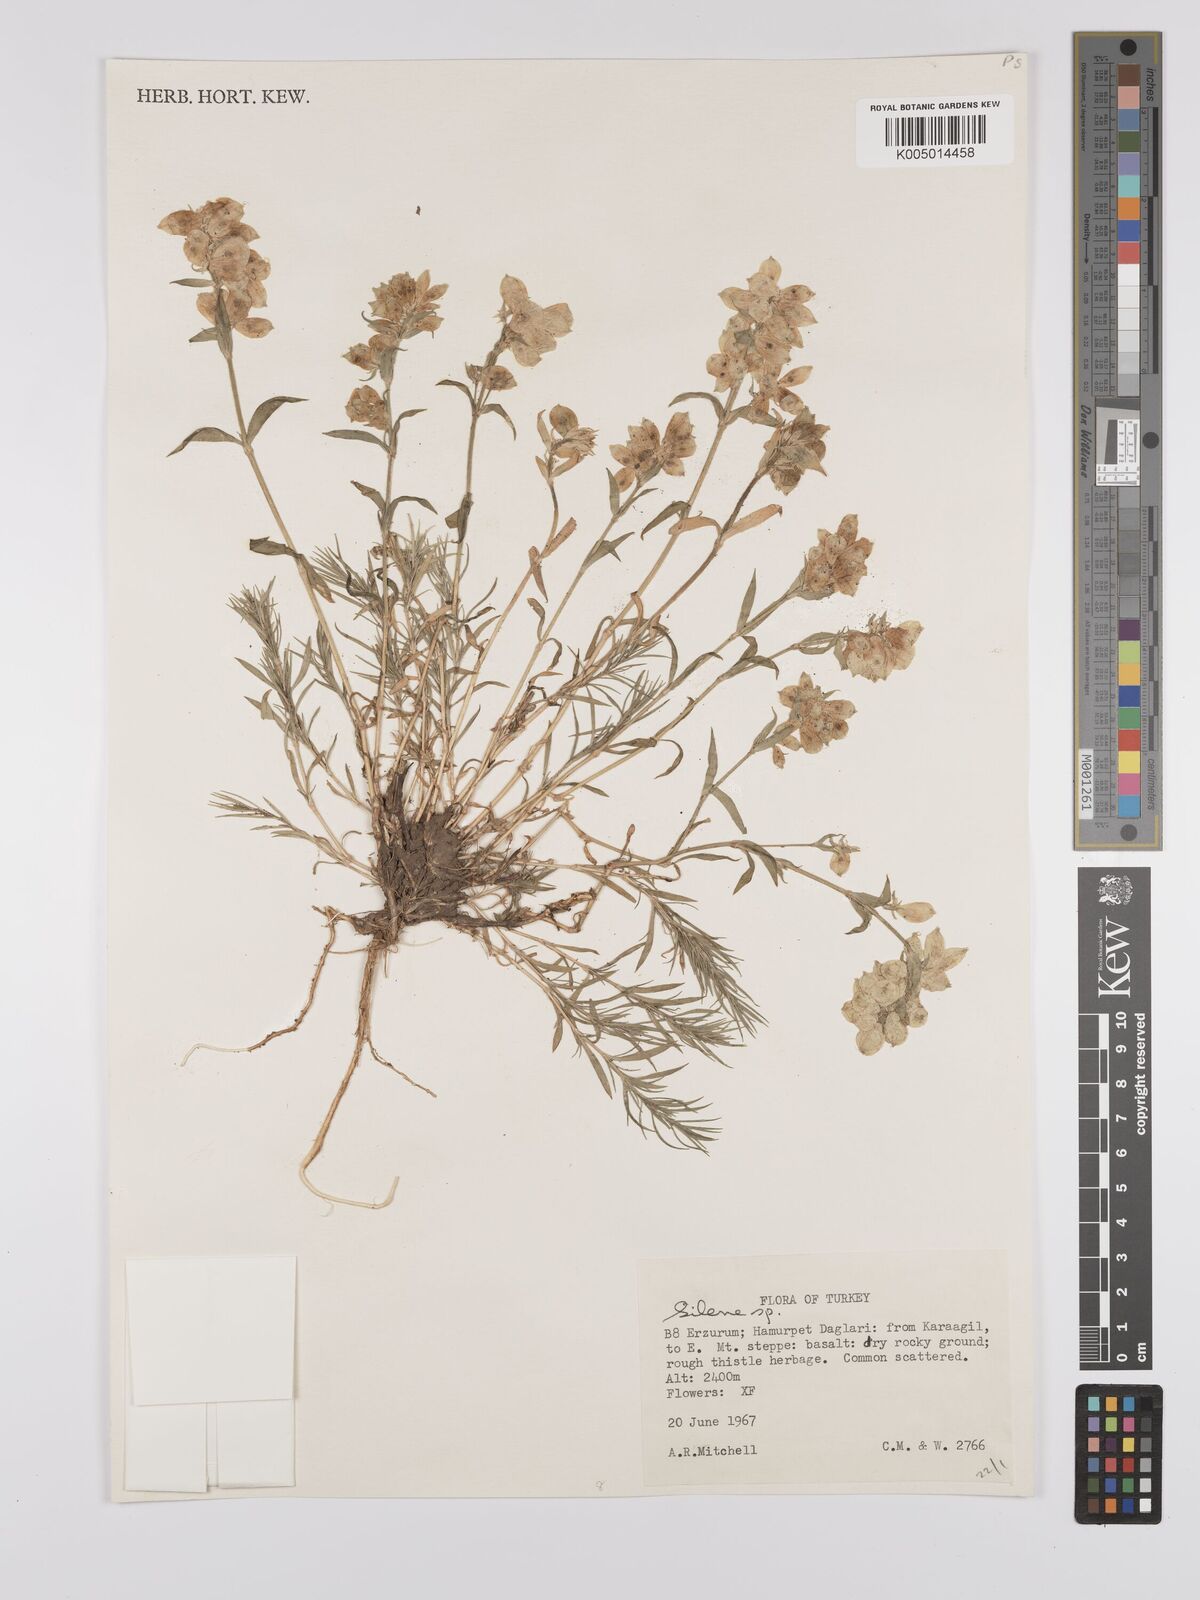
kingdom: Plantae
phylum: Tracheophyta
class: Magnoliopsida
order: Caryophyllales
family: Caryophyllaceae
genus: Silene
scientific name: Silene
